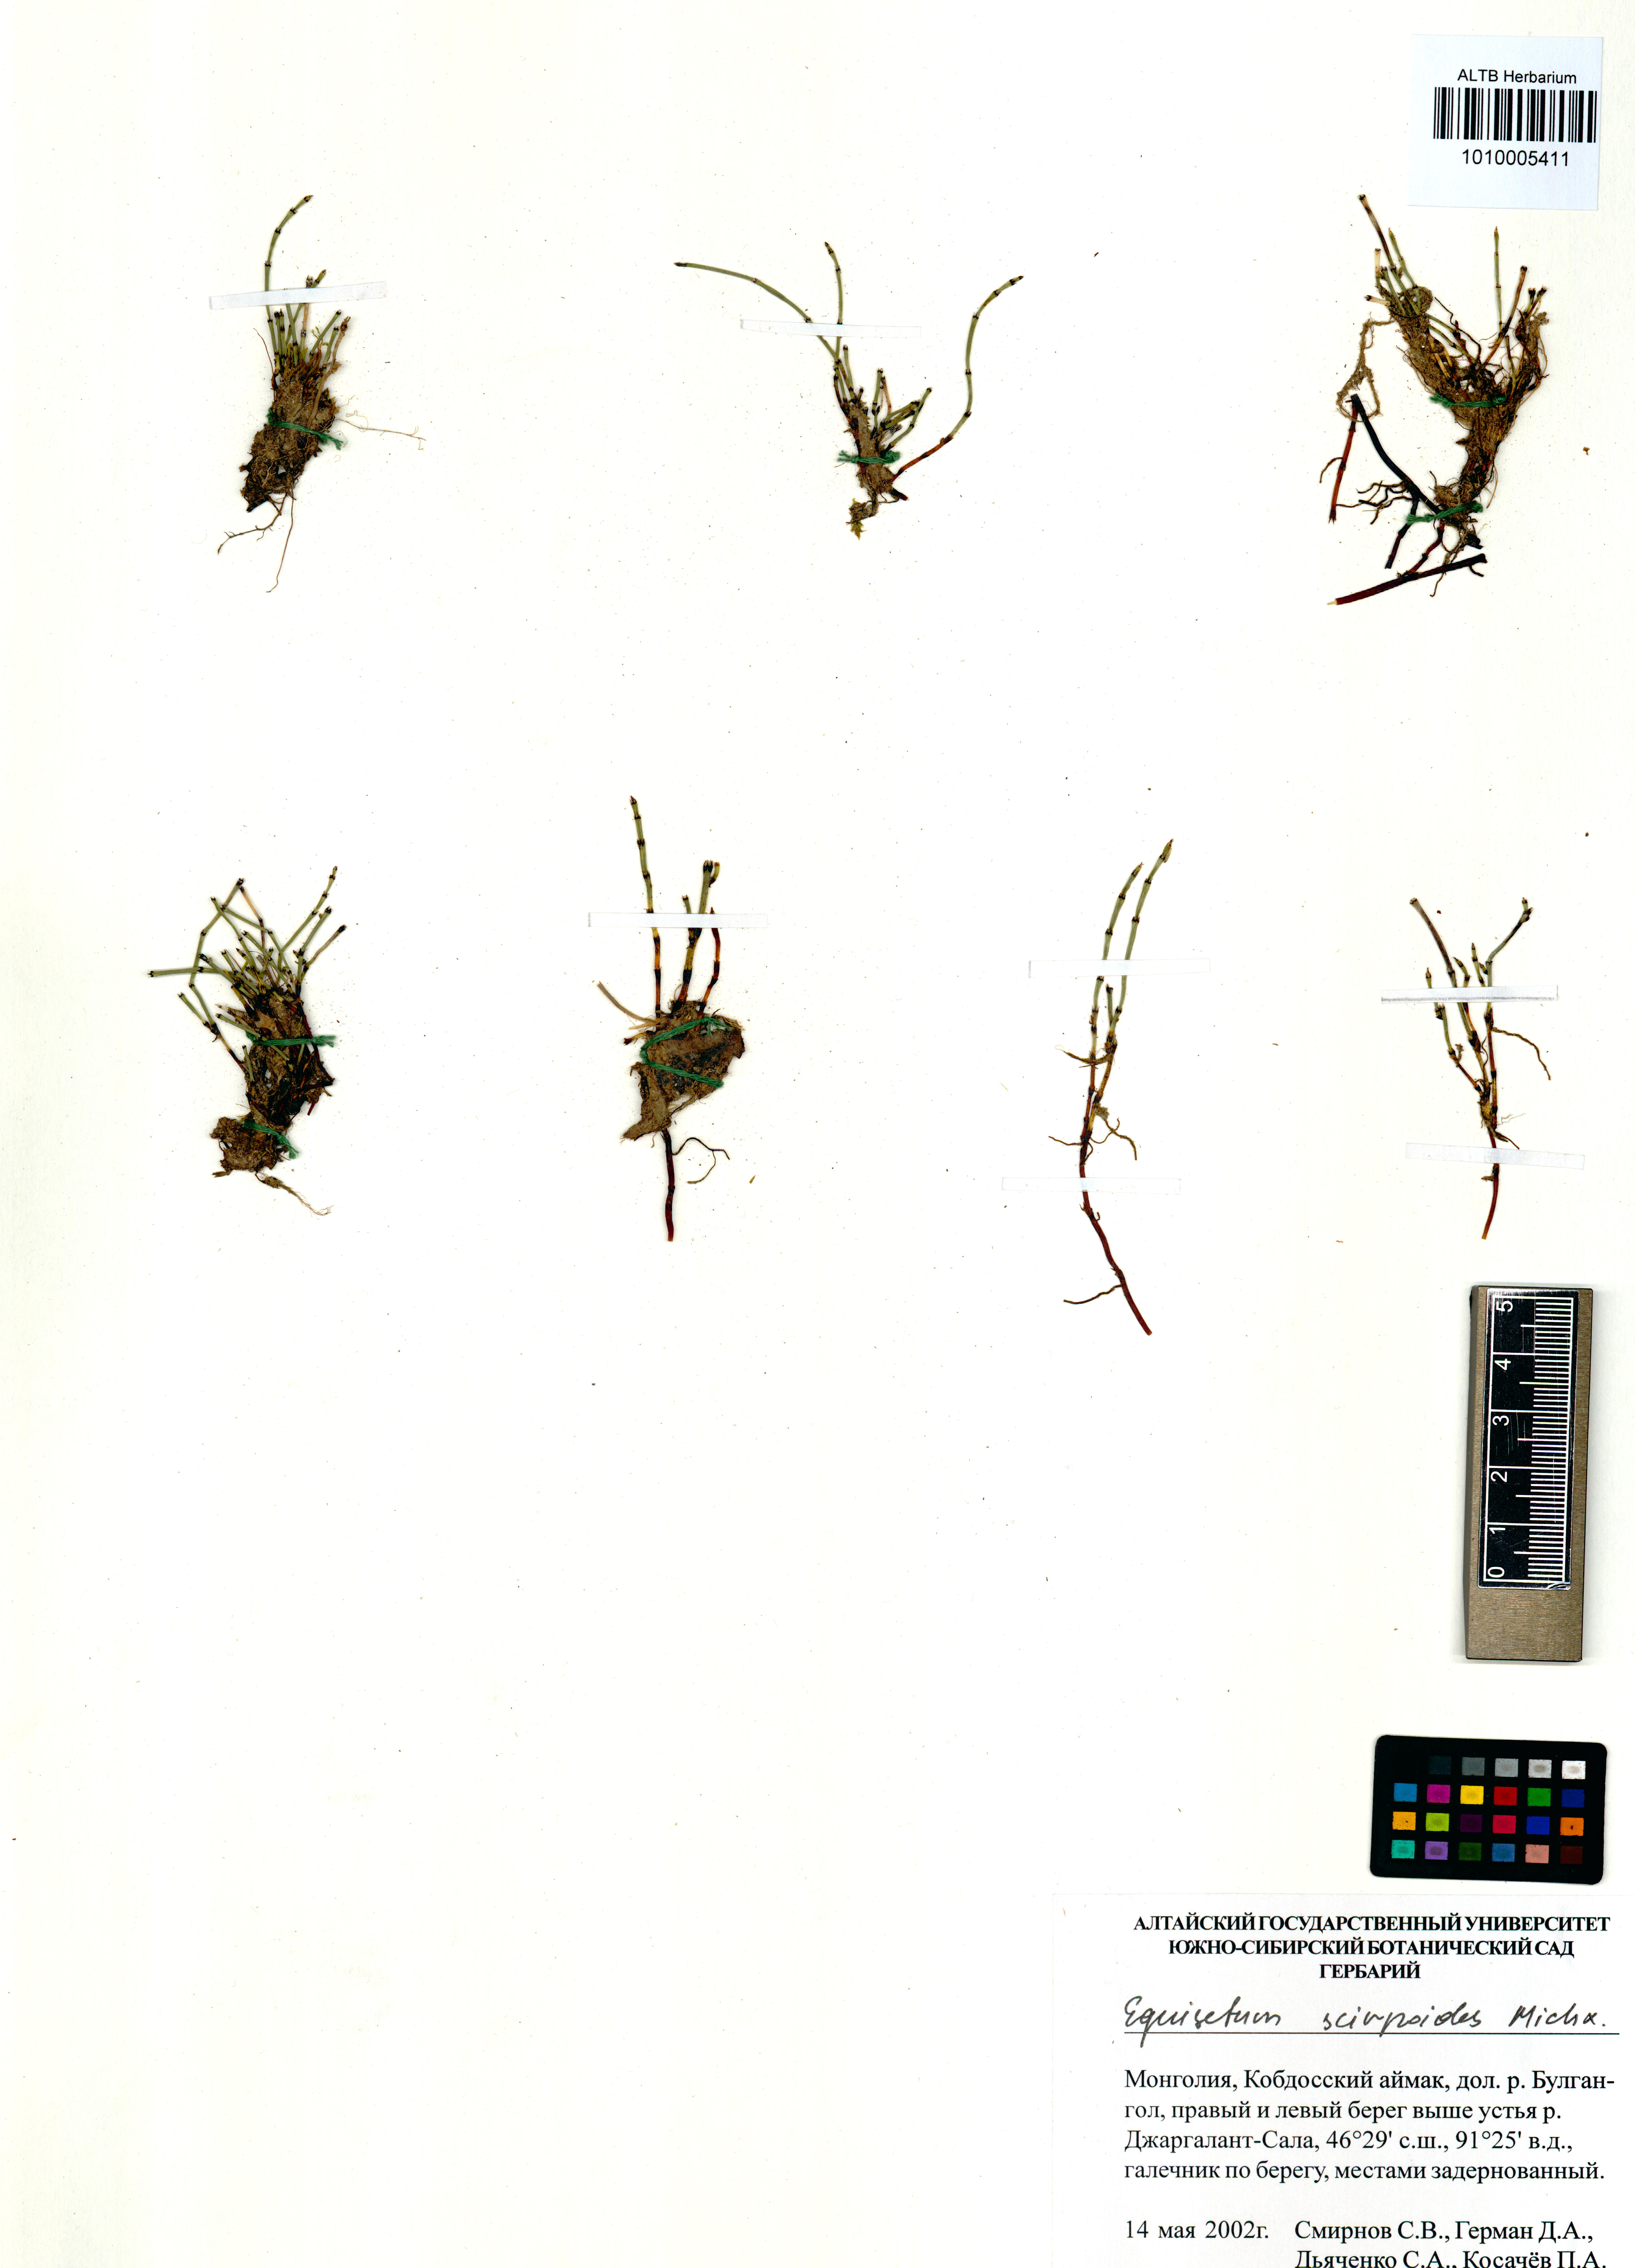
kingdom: Plantae
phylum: Tracheophyta
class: Polypodiopsida
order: Equisetales
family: Equisetaceae
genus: Equisetum
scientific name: Equisetum scirpoides
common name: Delicate horsetail
